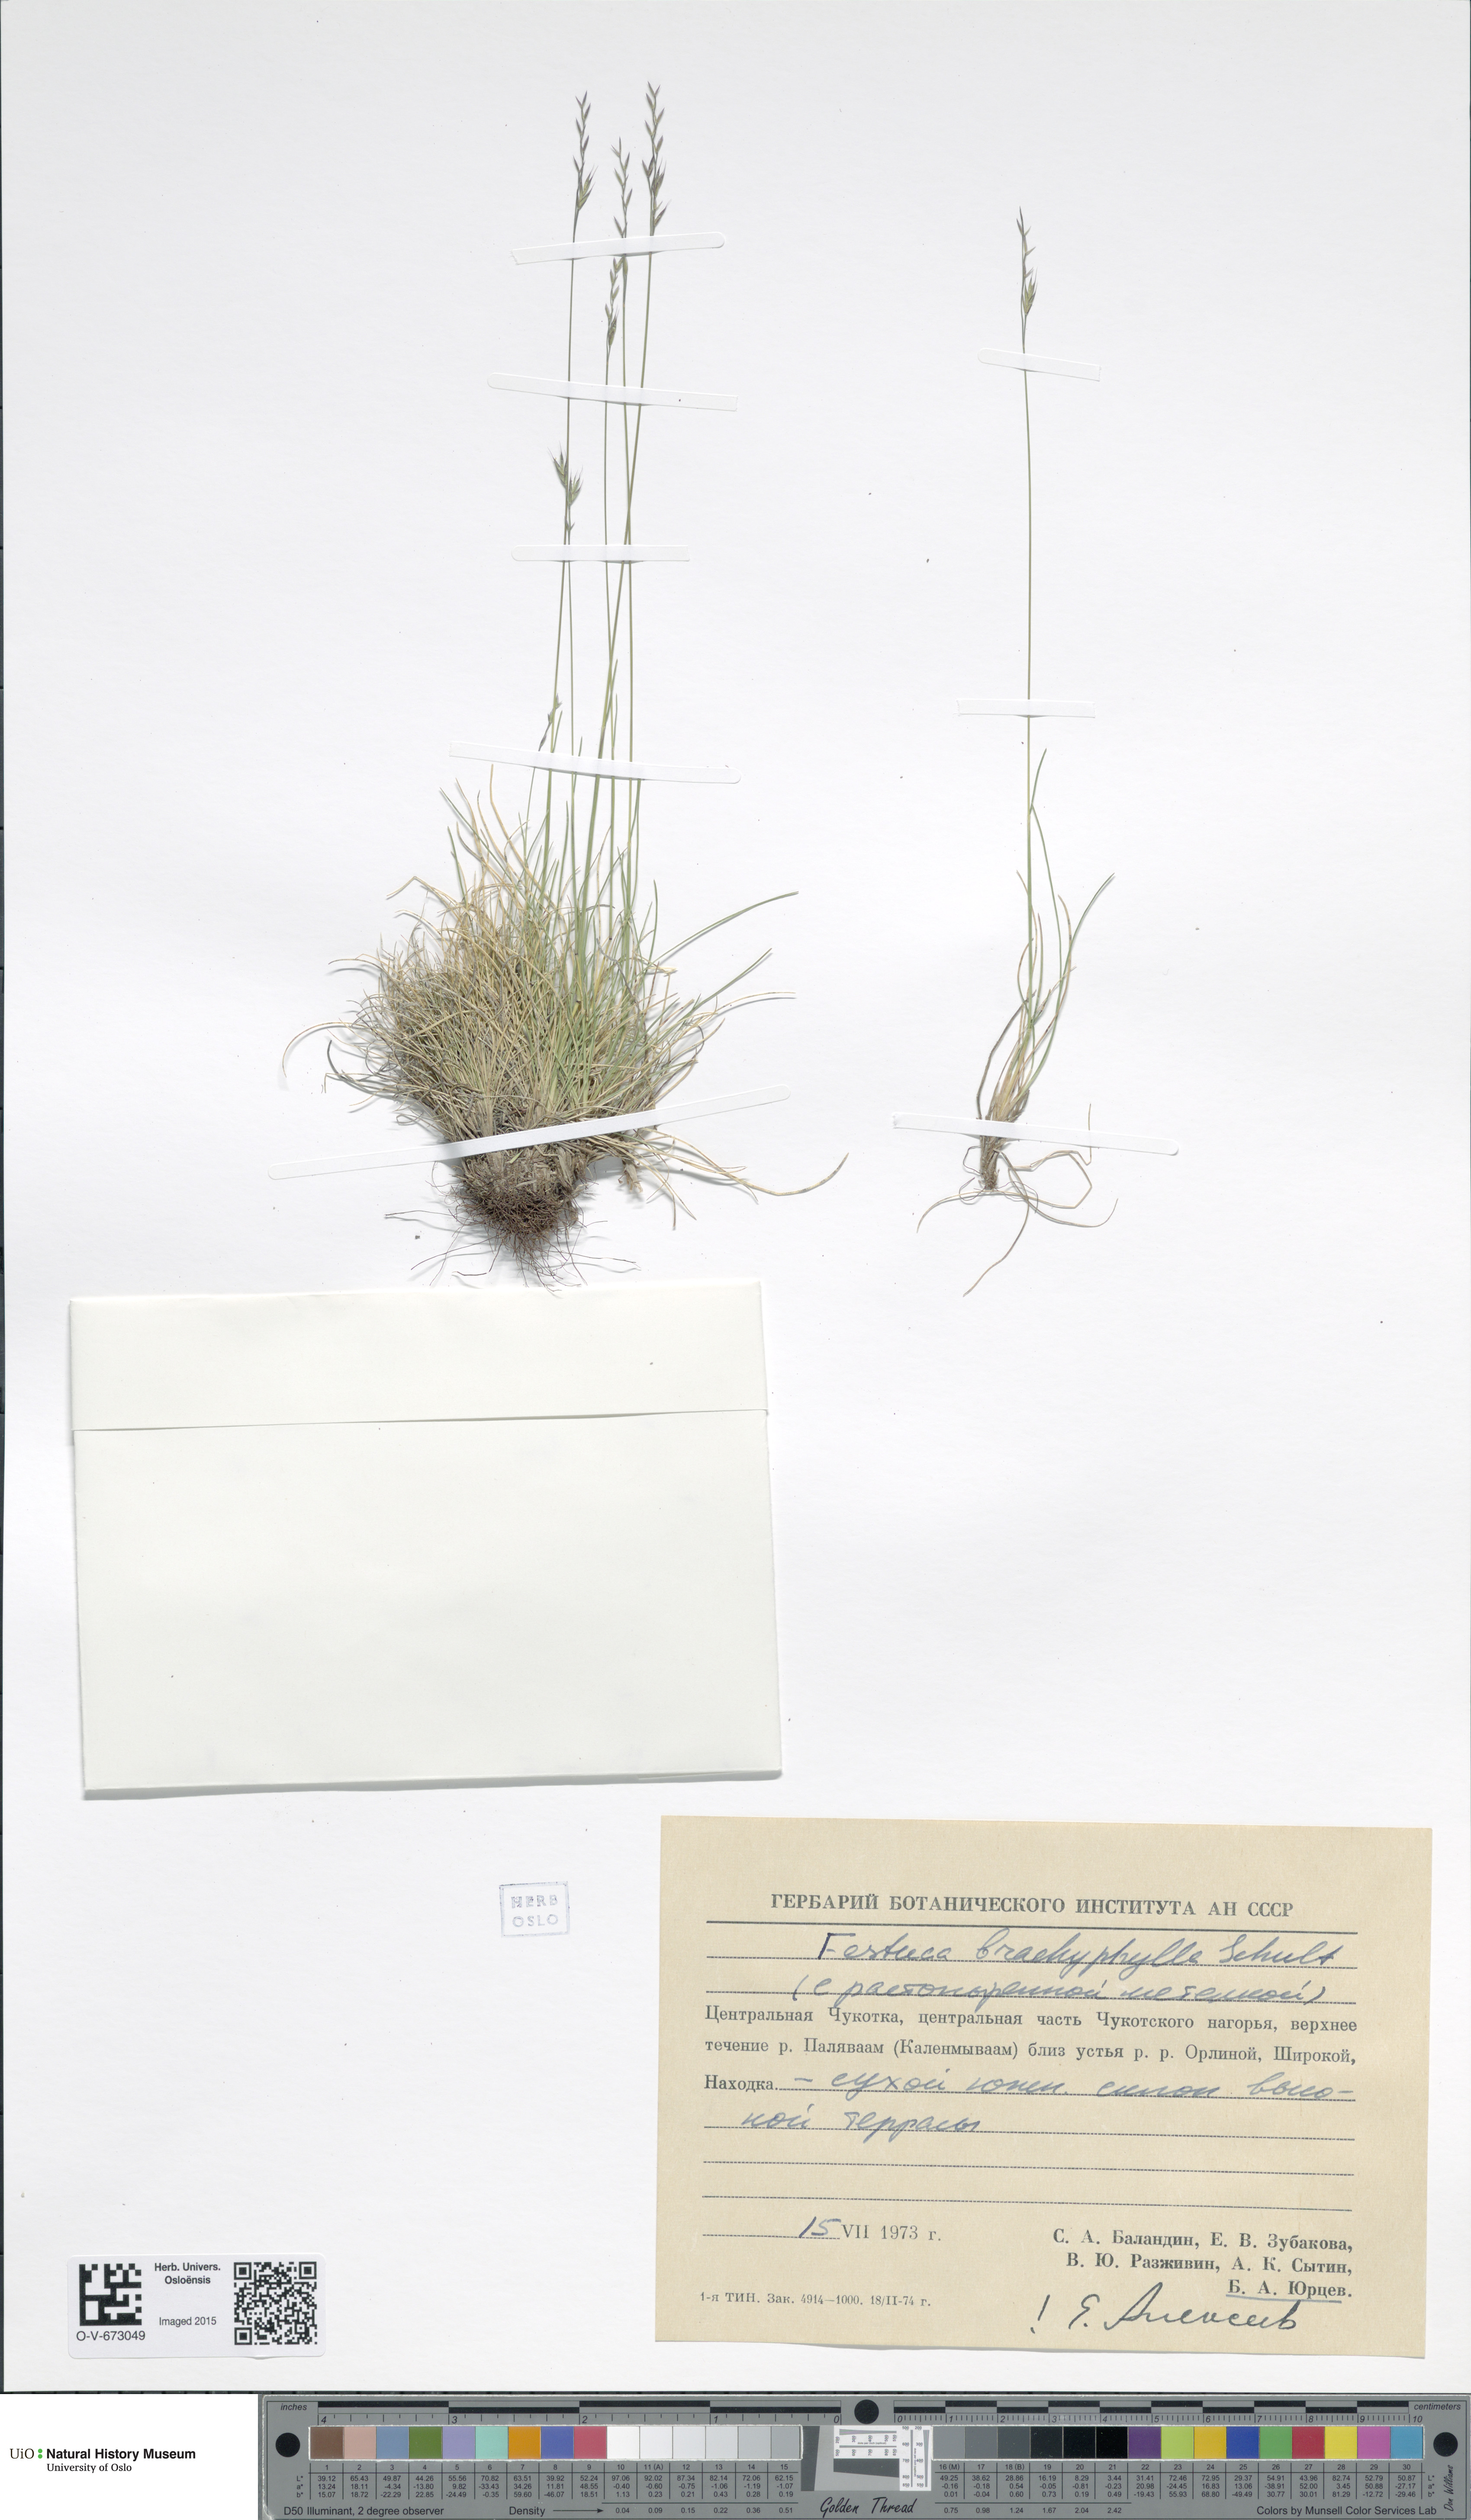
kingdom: Plantae
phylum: Tracheophyta
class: Liliopsida
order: Poales
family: Poaceae
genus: Festuca
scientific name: Festuca brachyphylla
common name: Alpine fescue
